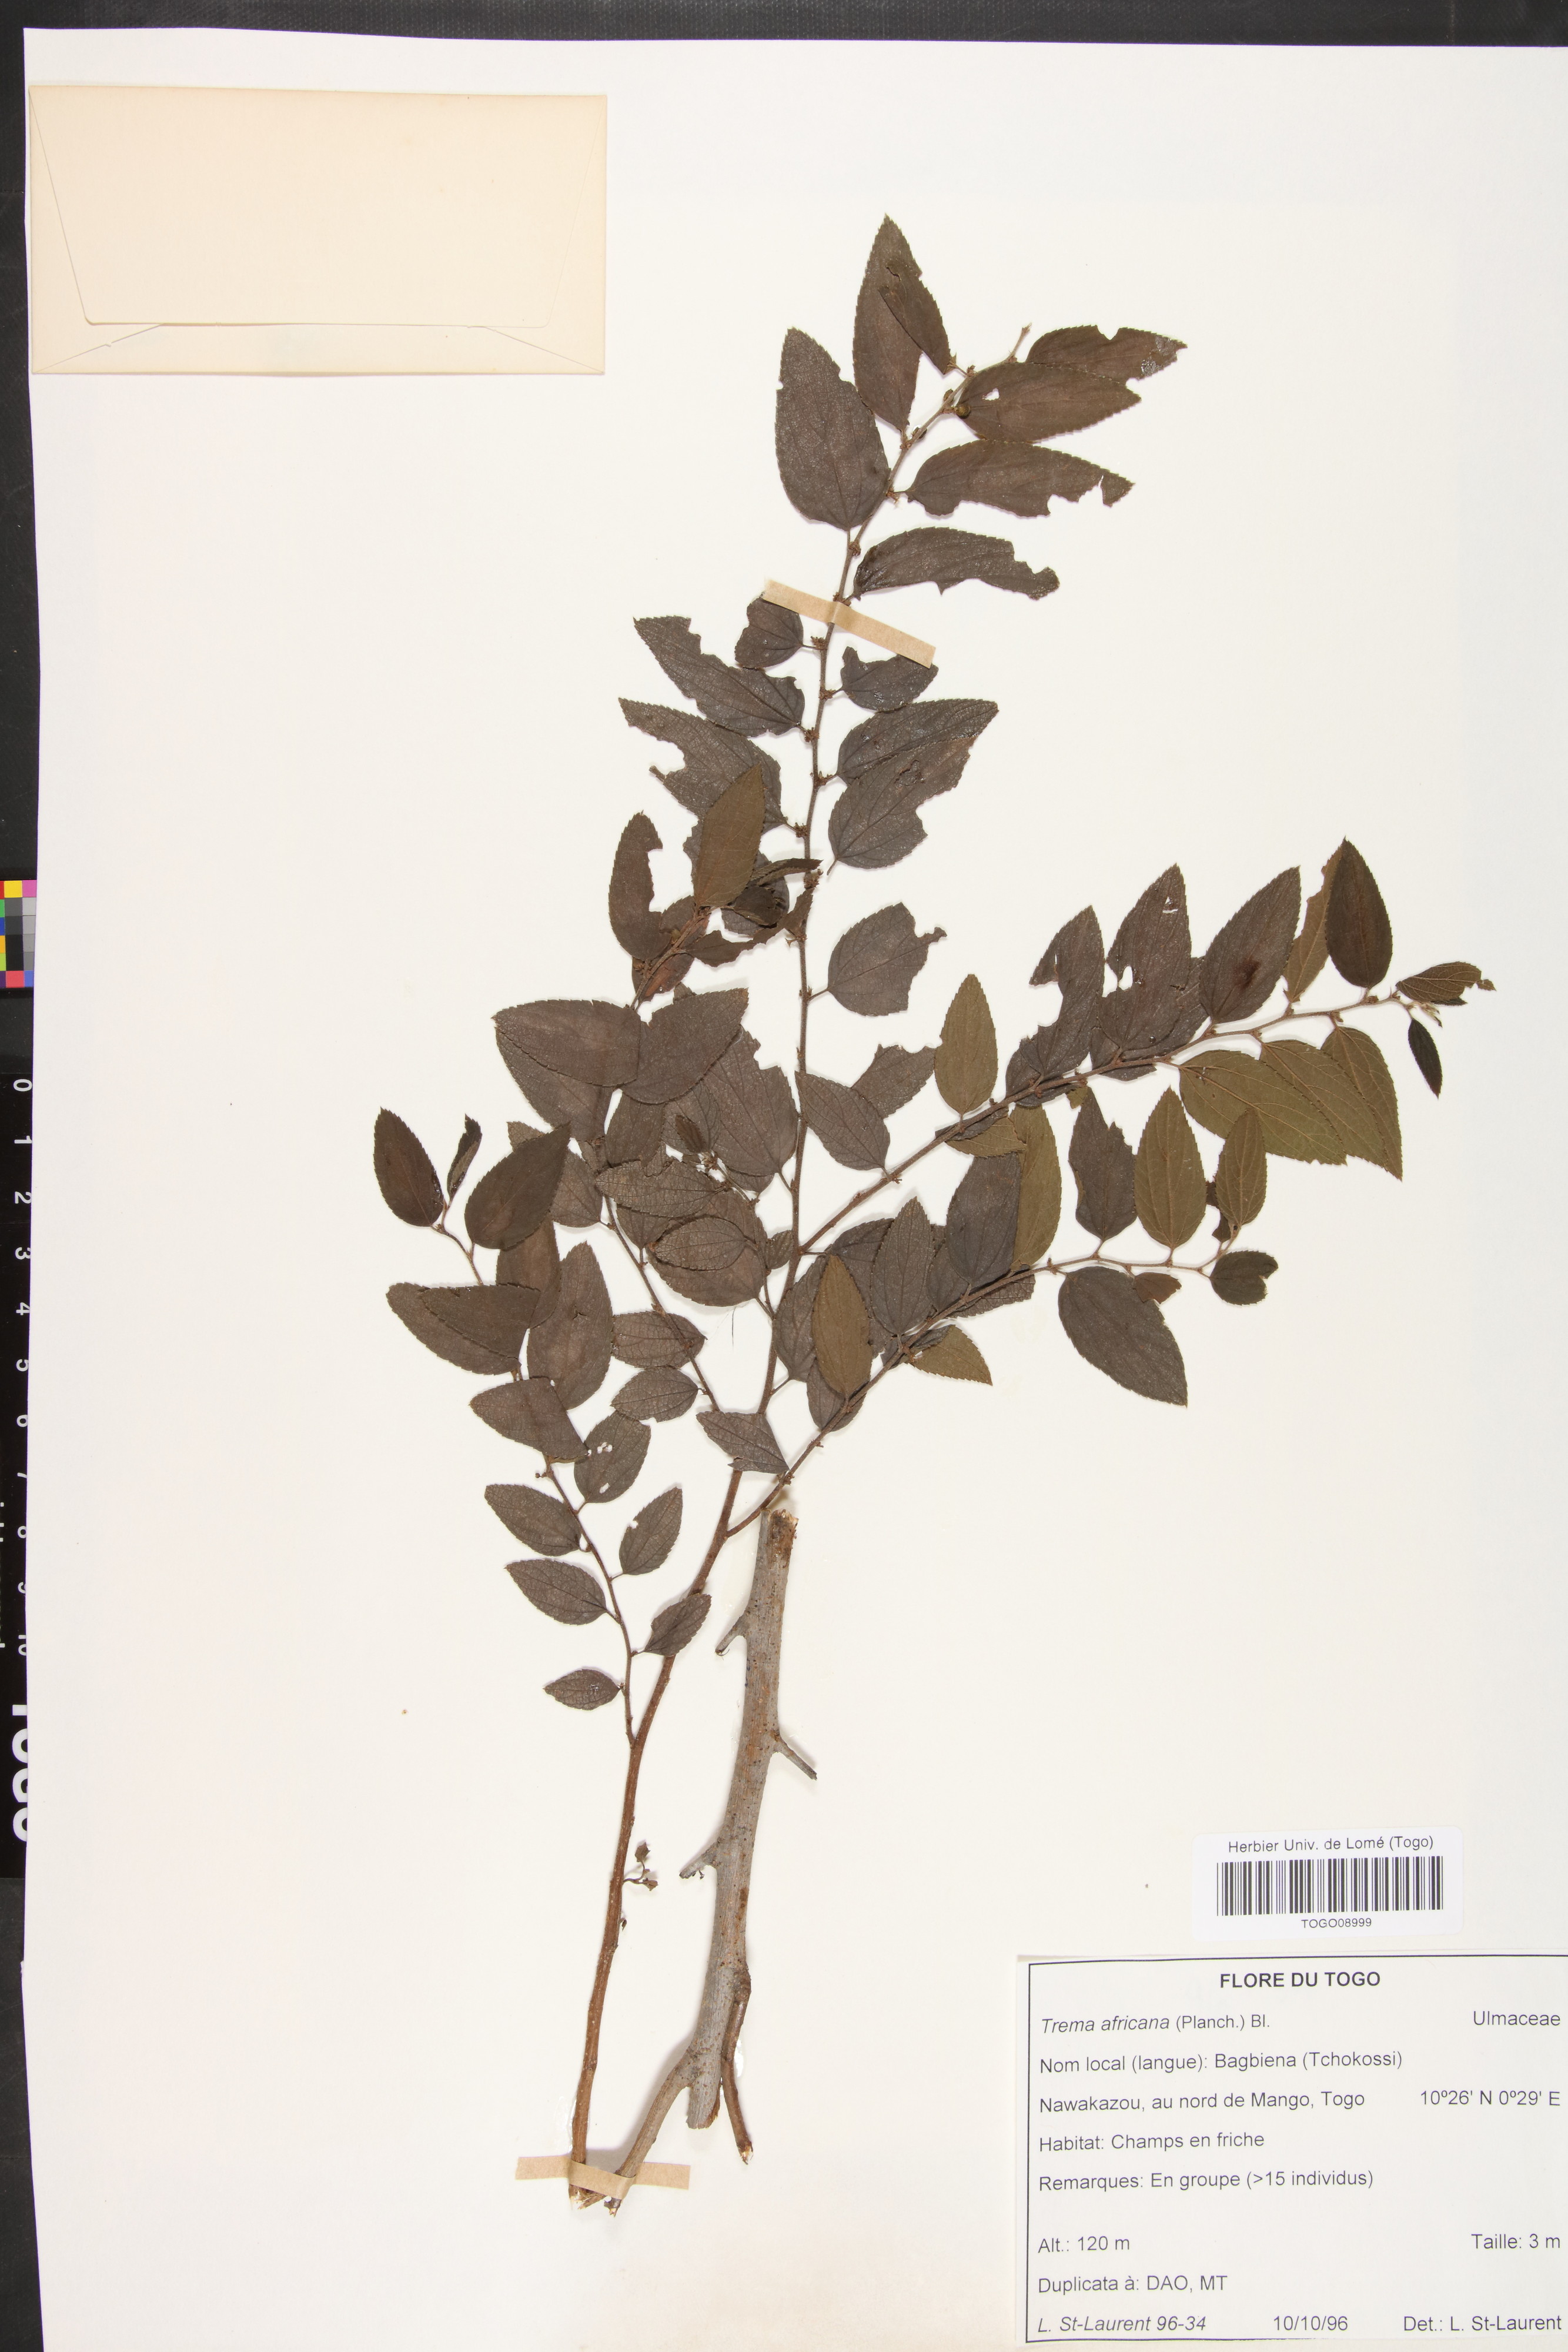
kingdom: Plantae
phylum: Tracheophyta
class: Magnoliopsida
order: Rosales
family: Cannabaceae
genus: Trema
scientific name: Trema orientale
